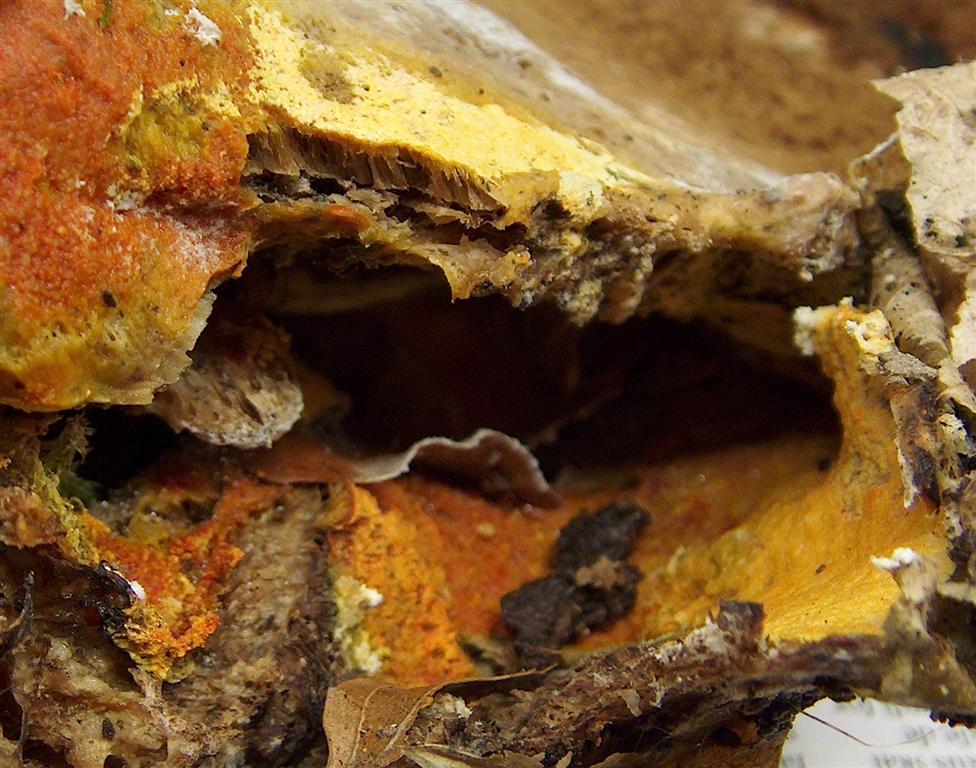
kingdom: Fungi
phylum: Ascomycota
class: Sordariomycetes
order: Hypocreales
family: Hypocreaceae
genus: Hypomyces
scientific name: Hypomyces aurantius
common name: almindelig snylteskorpe
